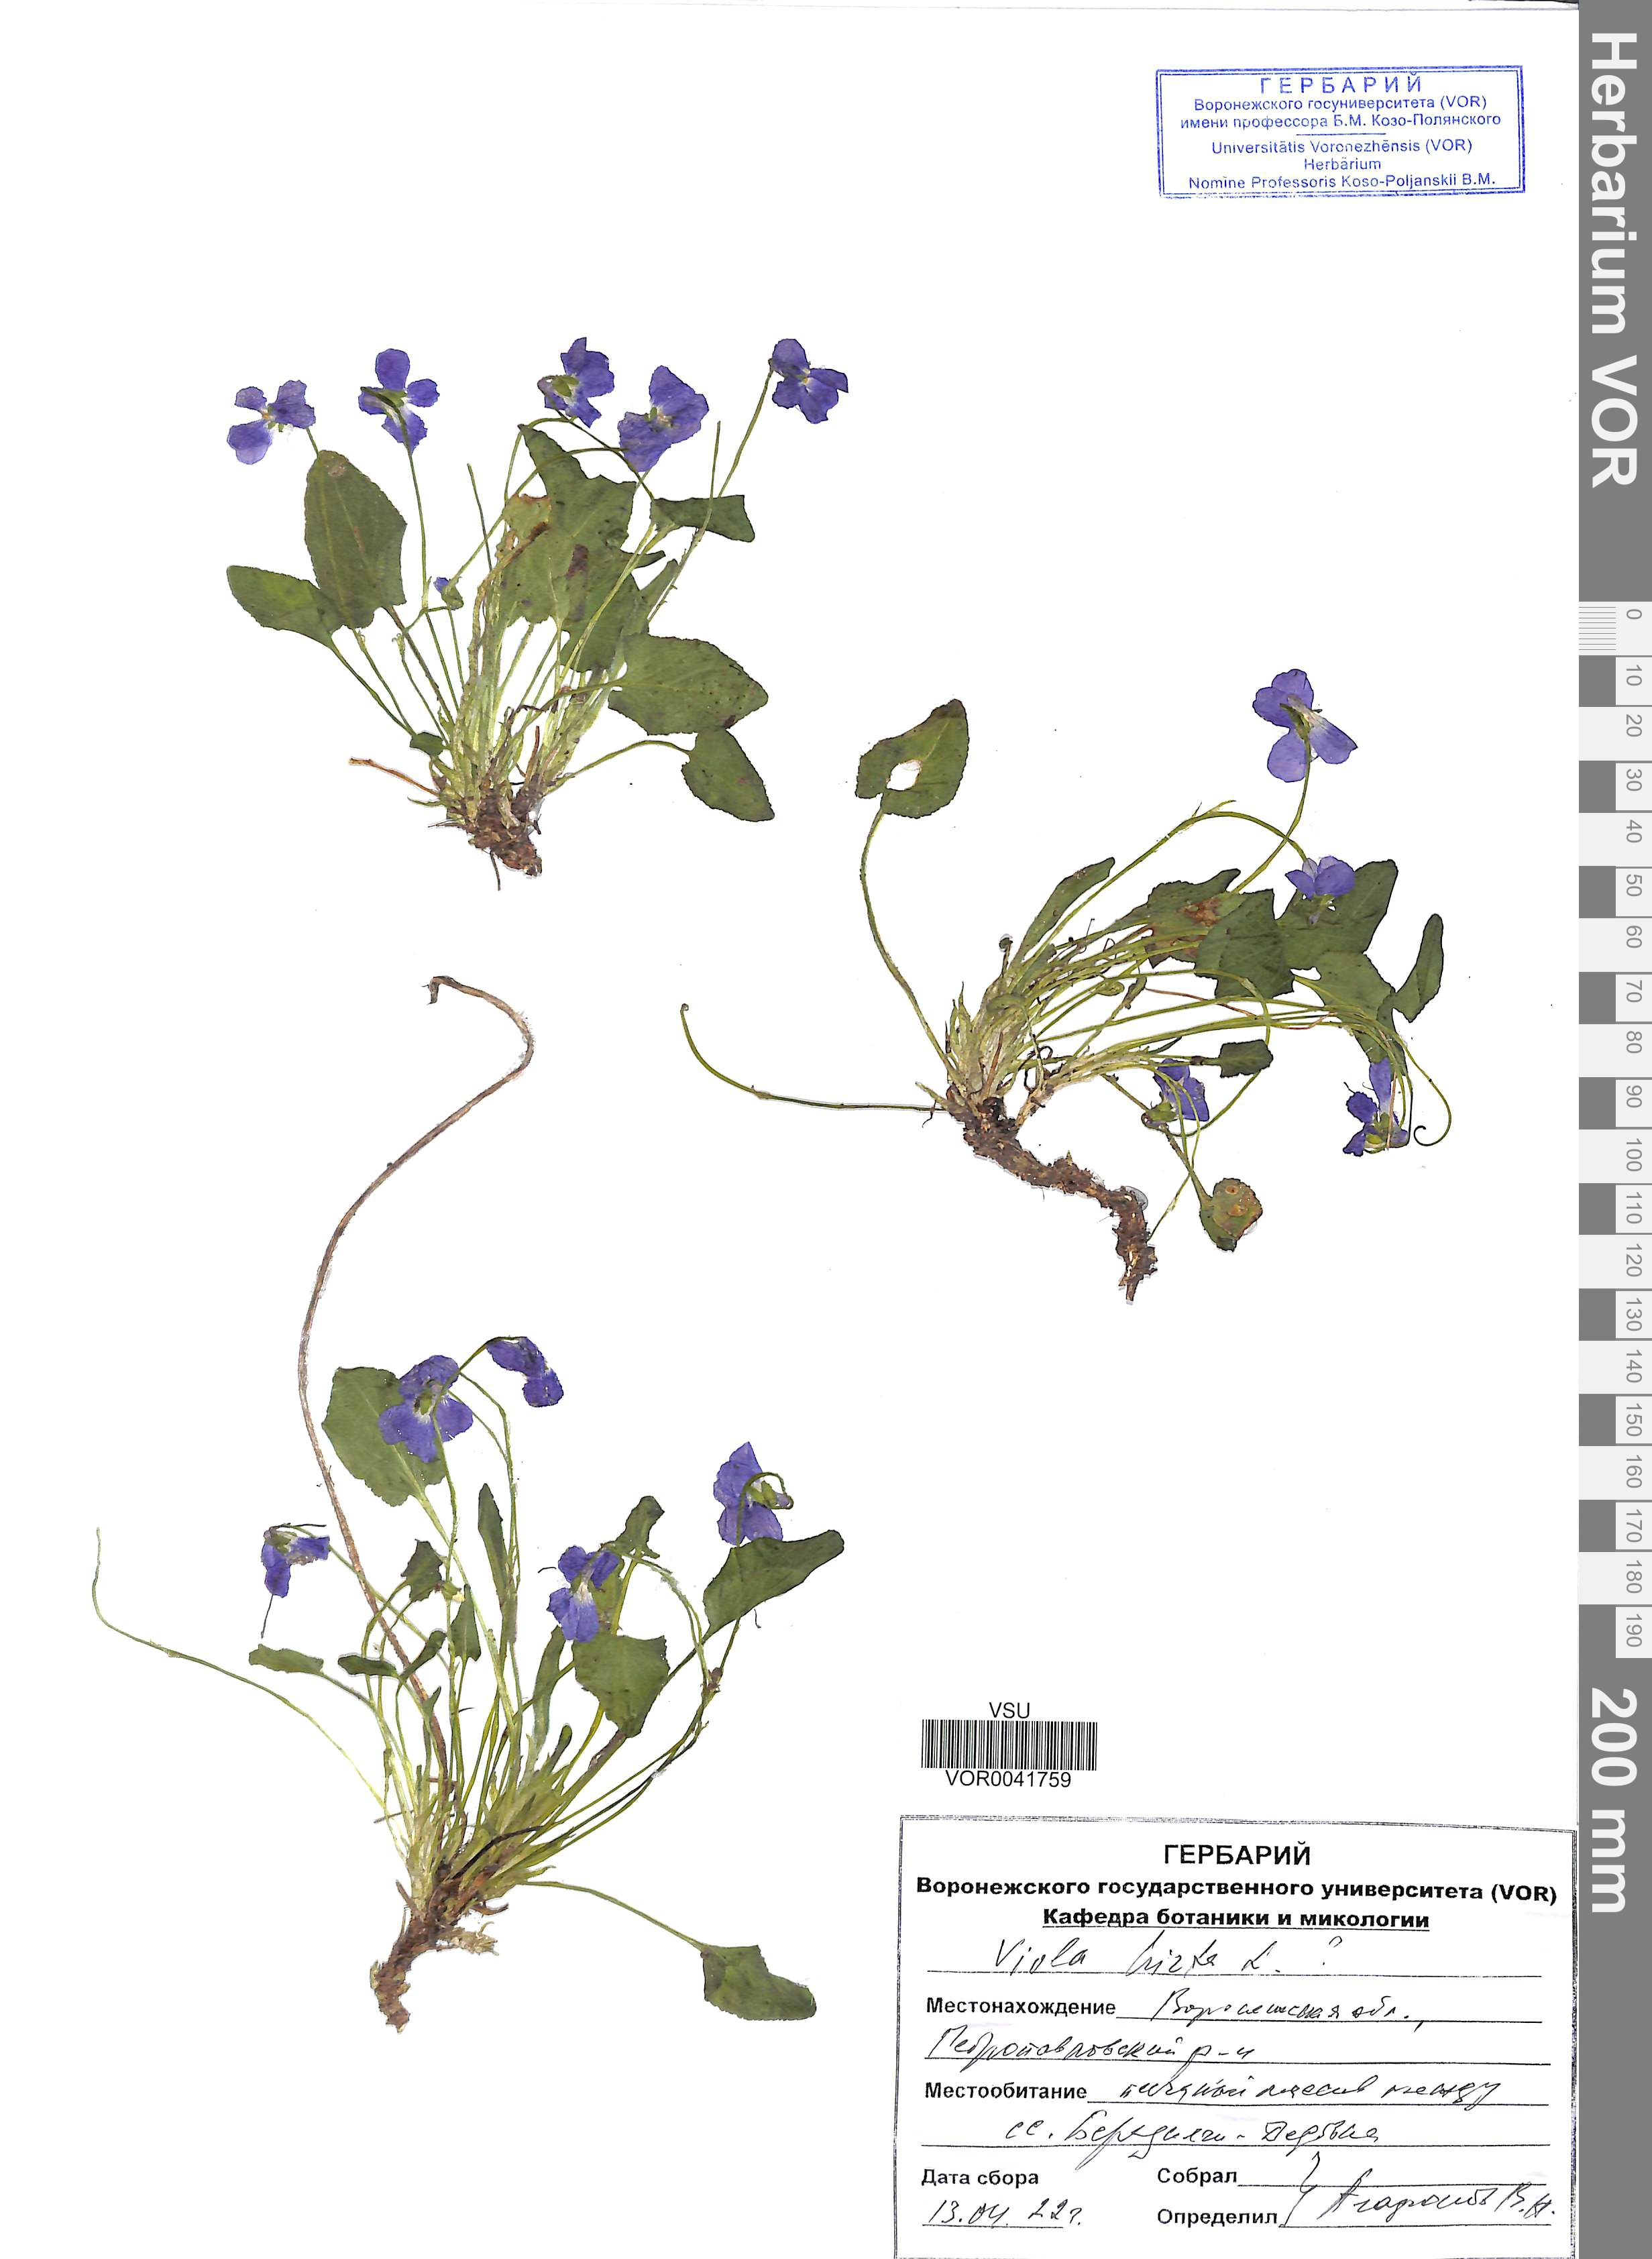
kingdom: Plantae
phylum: Tracheophyta
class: Magnoliopsida
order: Malpighiales
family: Violaceae
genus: Viola
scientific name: Viola hirta
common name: Hairy violet
